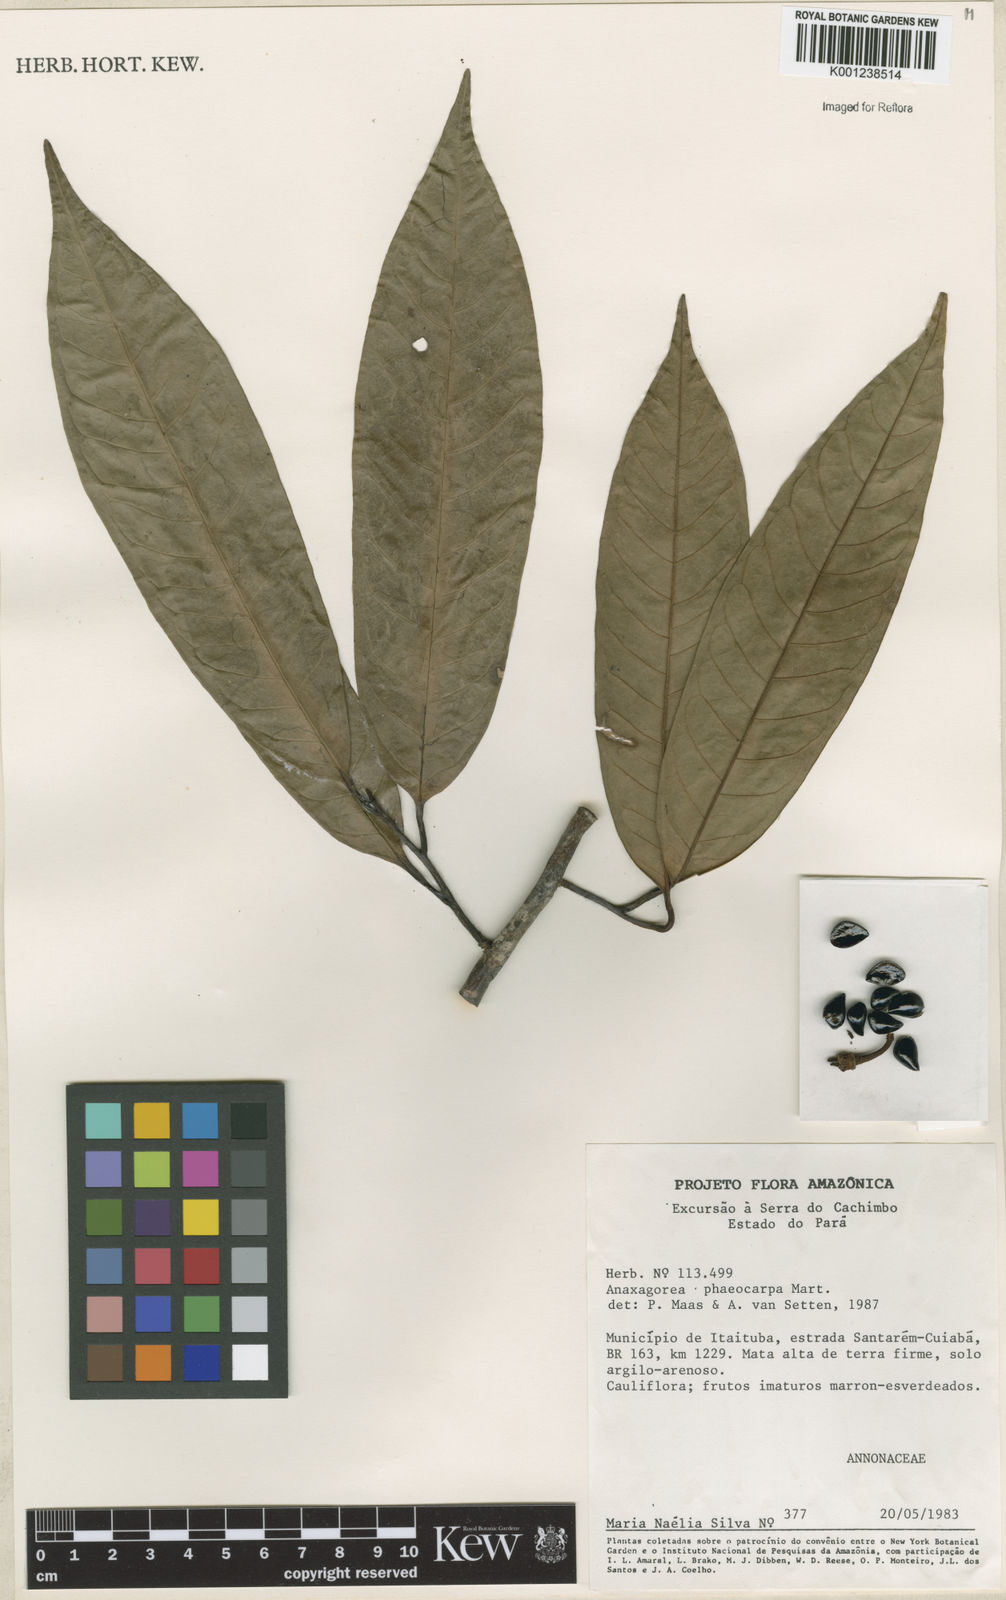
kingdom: Plantae
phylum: Tracheophyta
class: Magnoliopsida
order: Magnoliales
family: Annonaceae
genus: Anaxagorea
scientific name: Anaxagorea phaeocarpa
